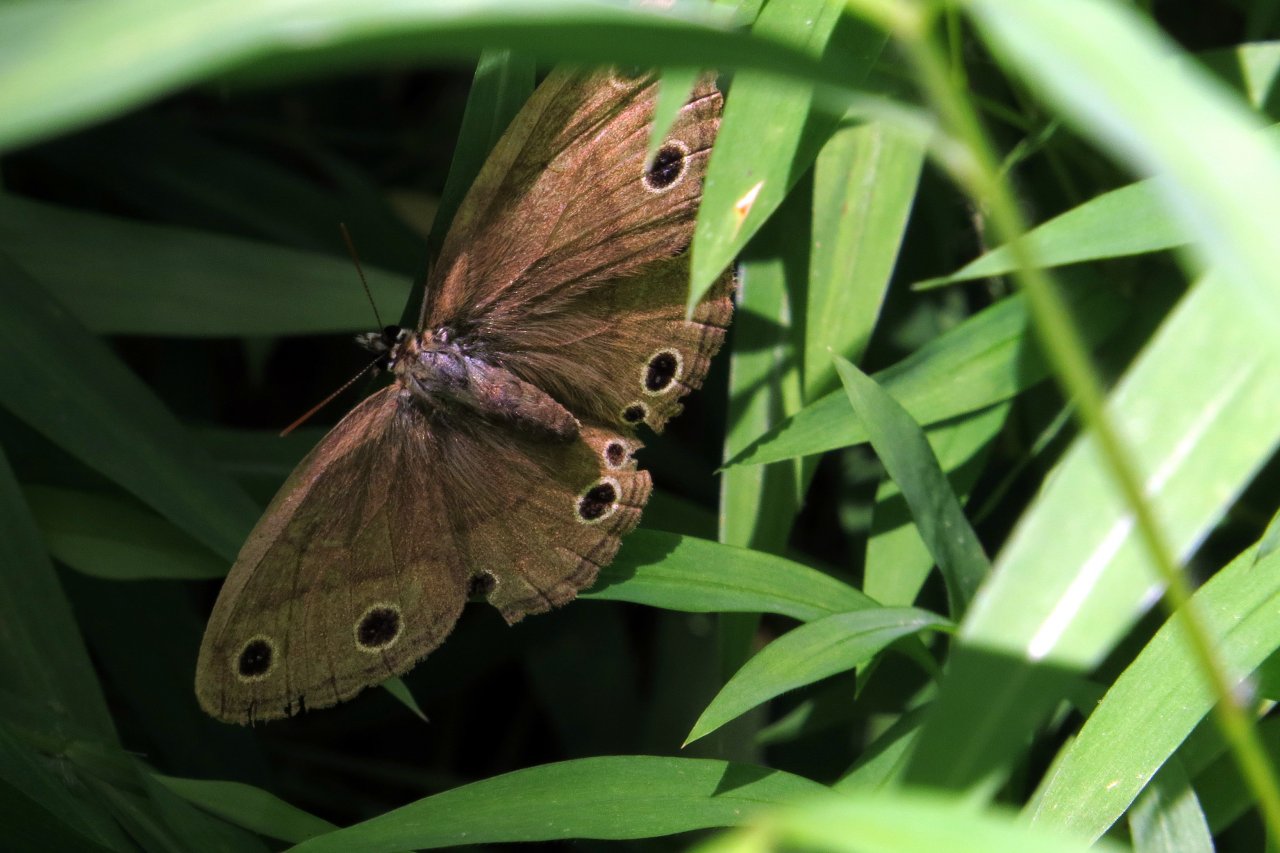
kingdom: Animalia
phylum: Arthropoda
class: Insecta
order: Lepidoptera
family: Nymphalidae
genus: Euptychia
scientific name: Euptychia cymela
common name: Little Wood Satyr
